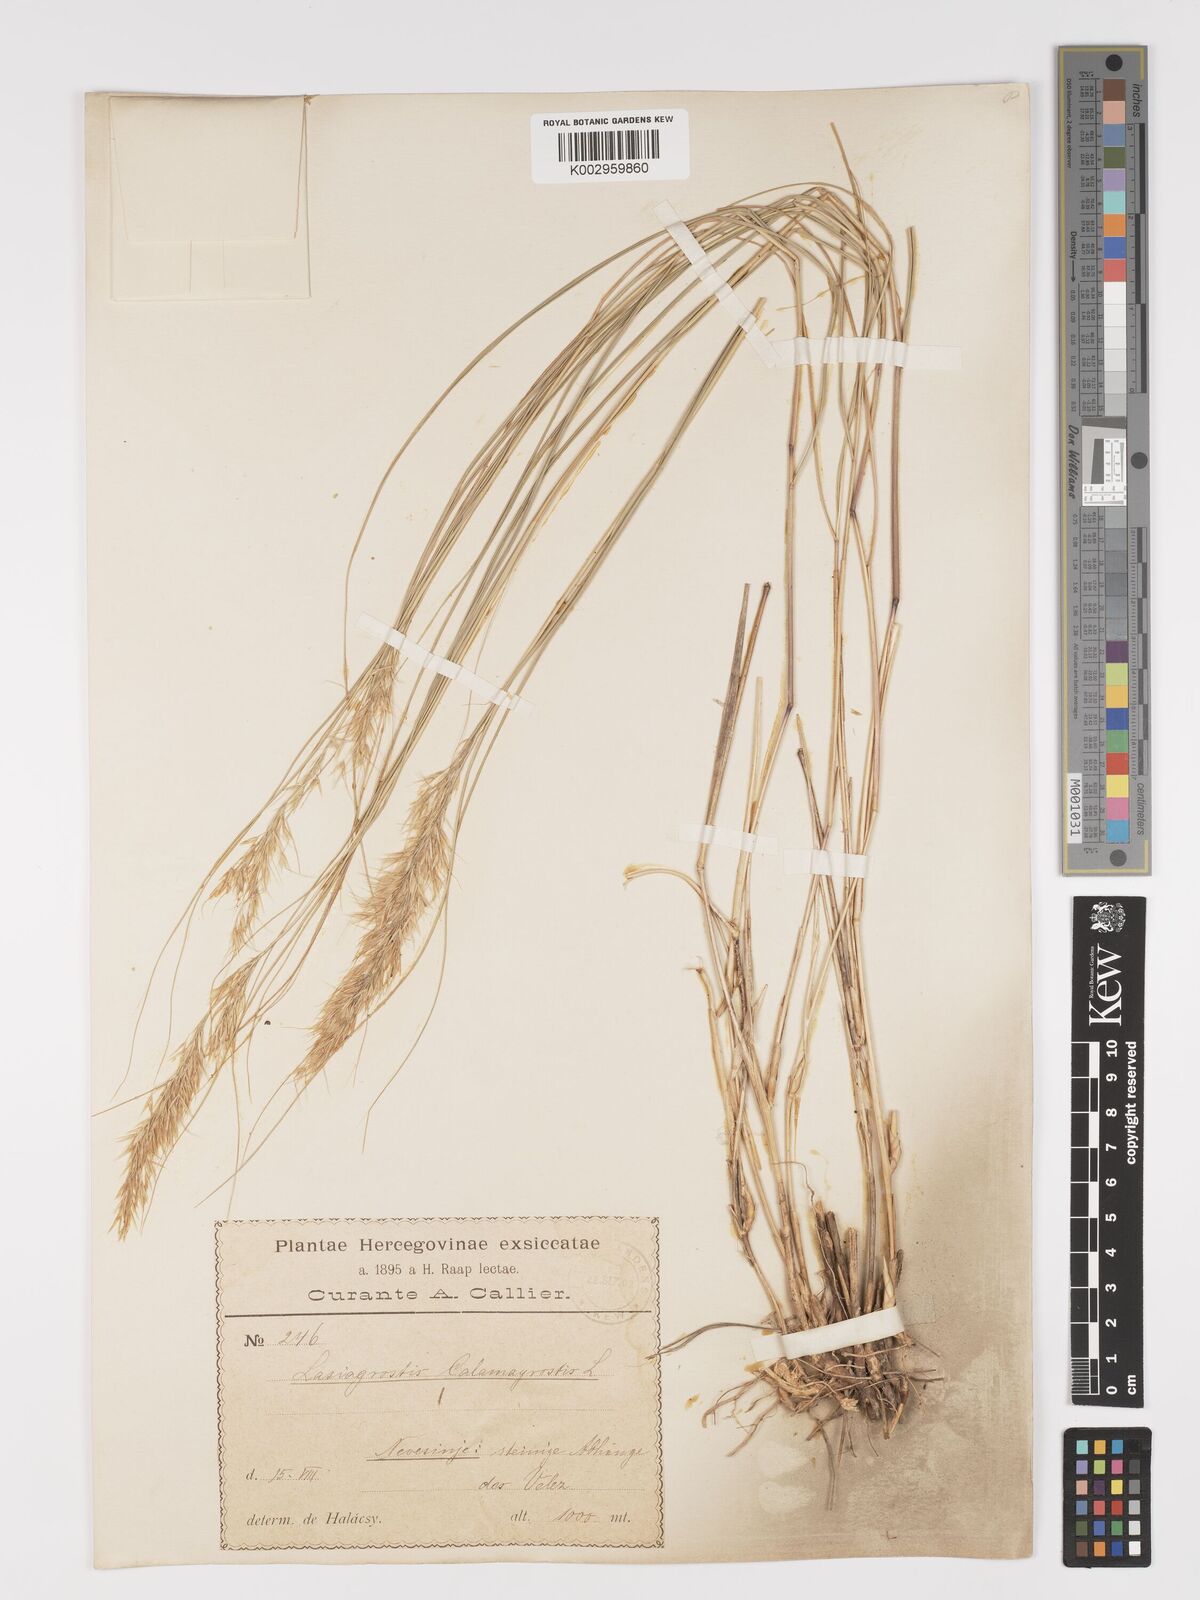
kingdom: Plantae
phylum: Tracheophyta
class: Liliopsida
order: Poales
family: Poaceae
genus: Achnatherum
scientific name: Achnatherum calamagrostis
